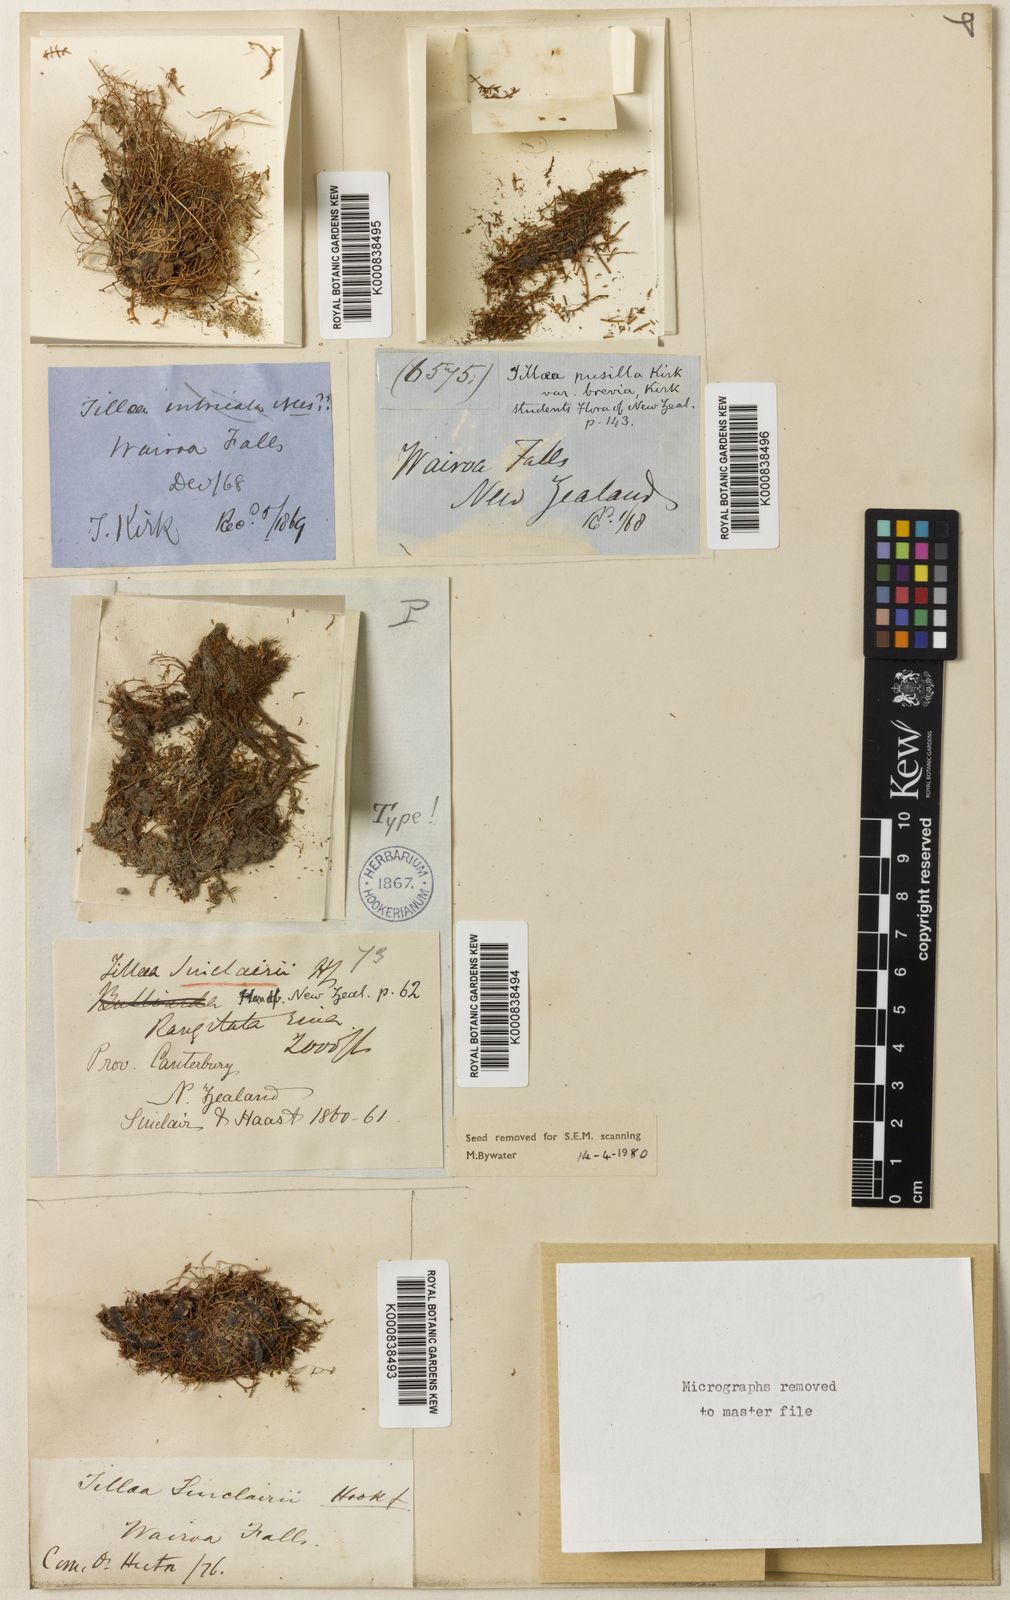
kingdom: Plantae
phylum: Tracheophyta
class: Magnoliopsida
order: Saxifragales
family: Crassulaceae
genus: Crassula
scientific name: Crassula sinclairii
